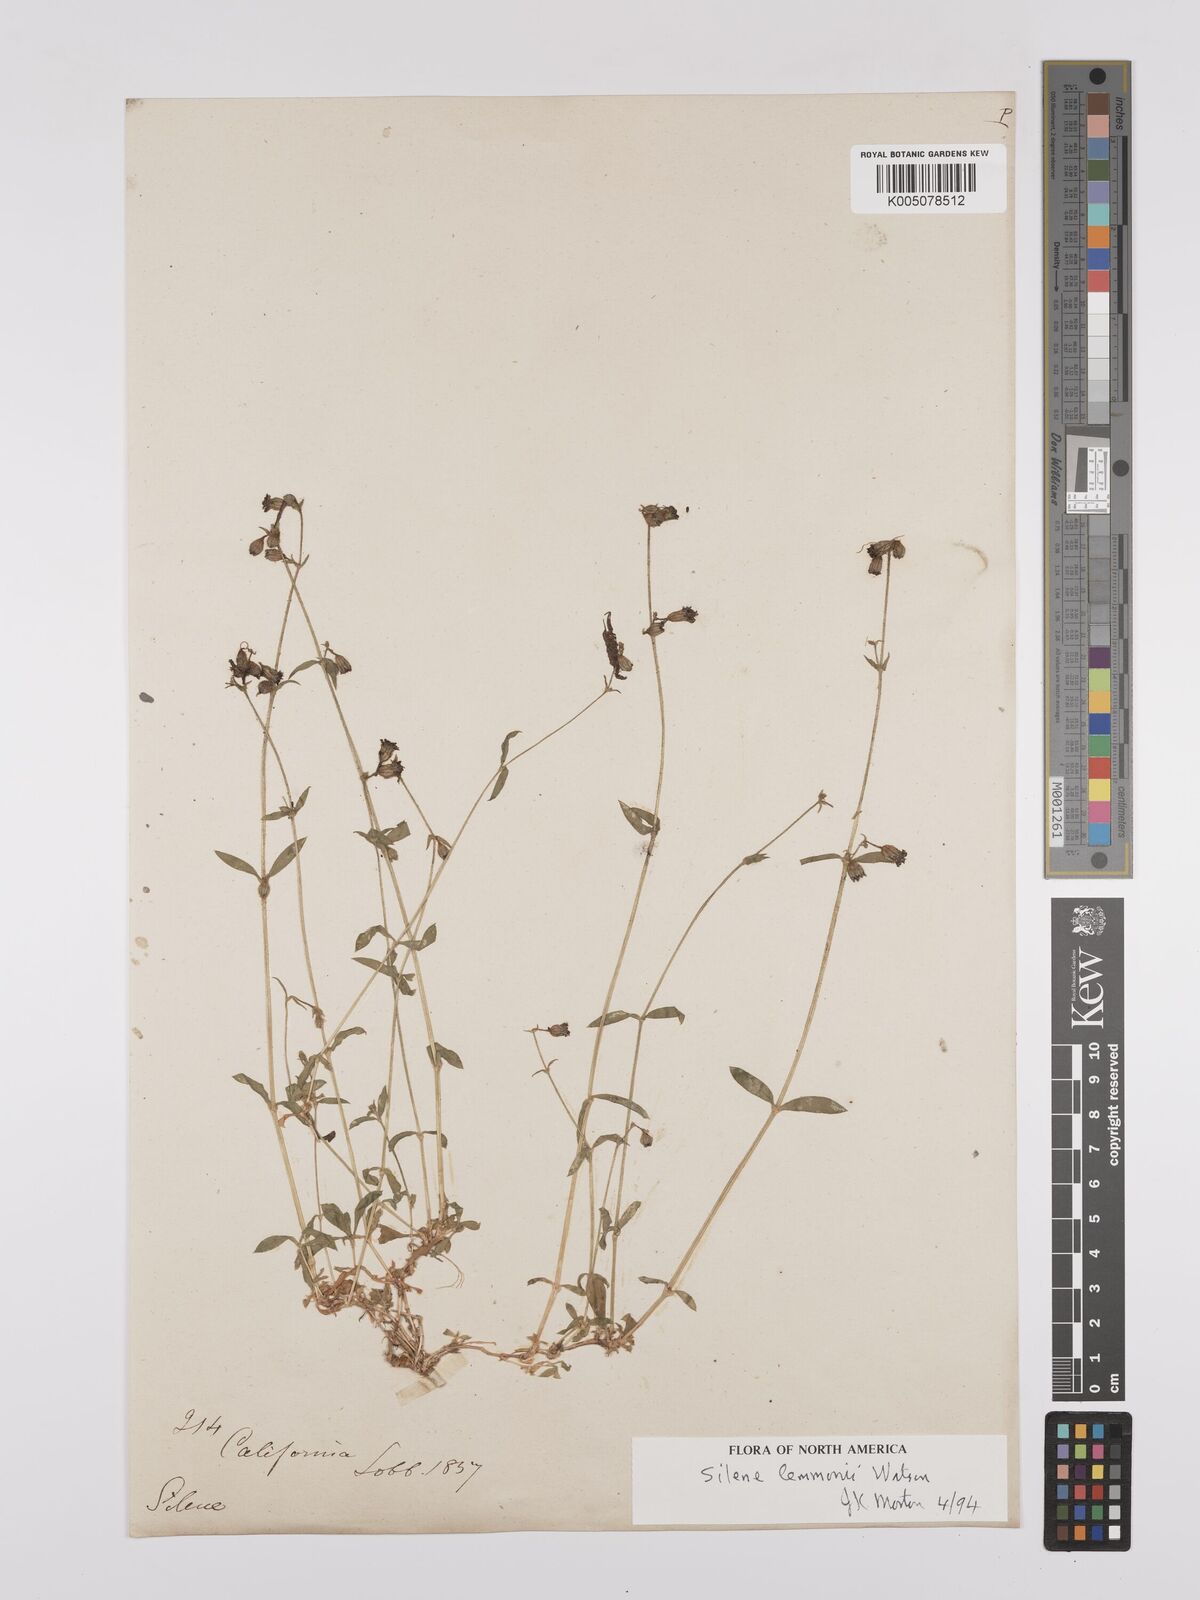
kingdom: Plantae
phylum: Tracheophyta
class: Magnoliopsida
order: Caryophyllales
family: Caryophyllaceae
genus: Silene
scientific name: Silene lemmonii
